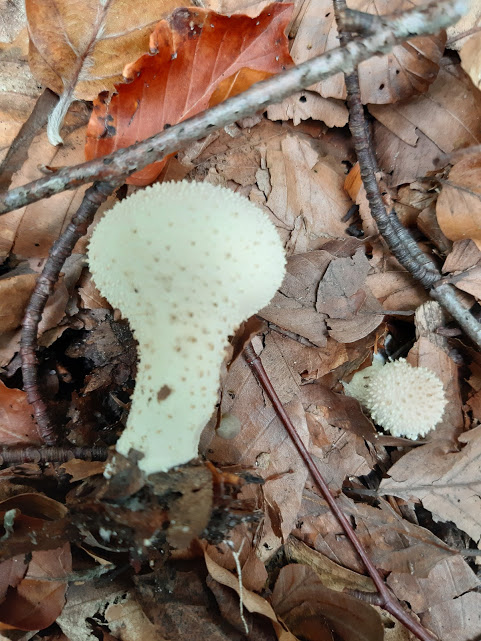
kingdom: Fungi
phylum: Basidiomycota
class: Agaricomycetes
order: Agaricales
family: Lycoperdaceae
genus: Lycoperdon
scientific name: Lycoperdon perlatum
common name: krystal-støvbold
